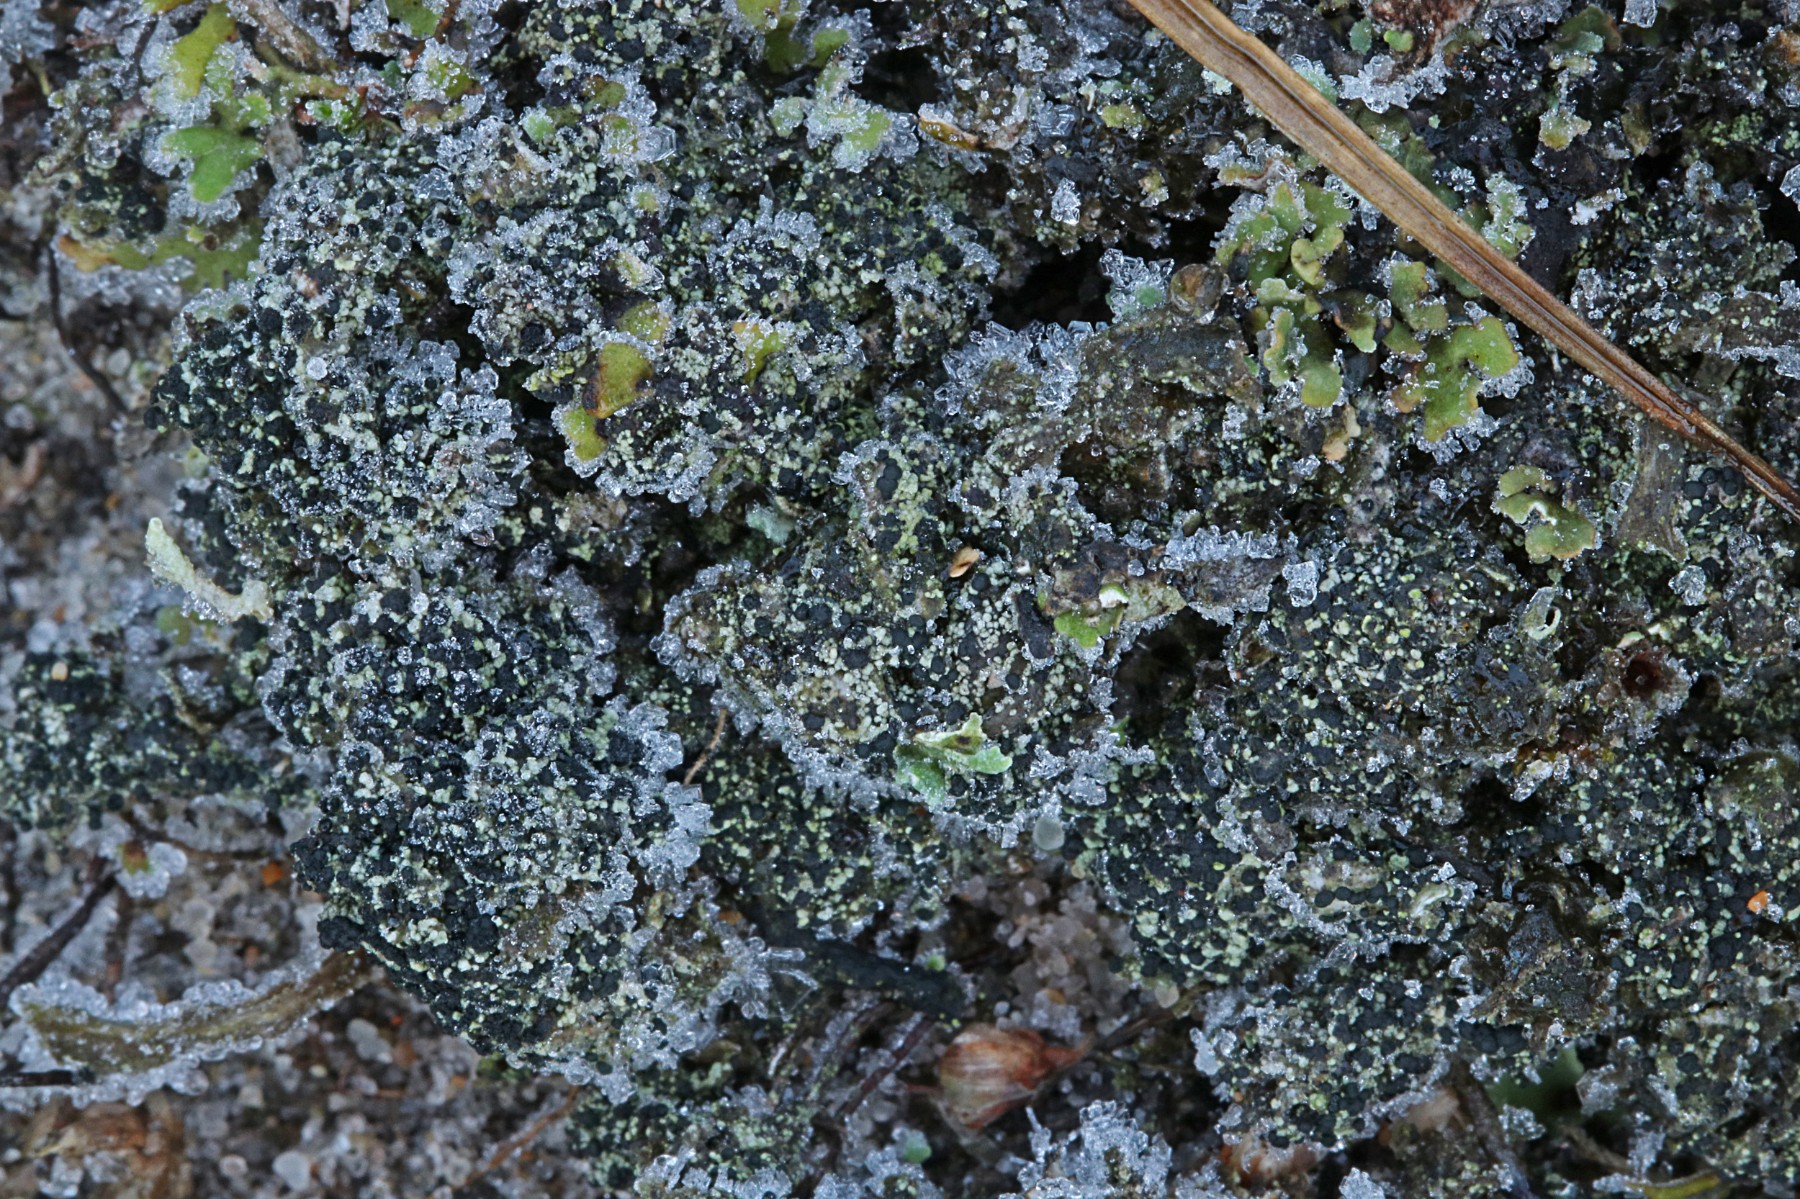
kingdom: Fungi
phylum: Ascomycota
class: Lecanoromycetes
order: Lecanorales
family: Byssolomataceae
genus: Micarea
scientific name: Micarea lignaria
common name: tørve-knaplav
